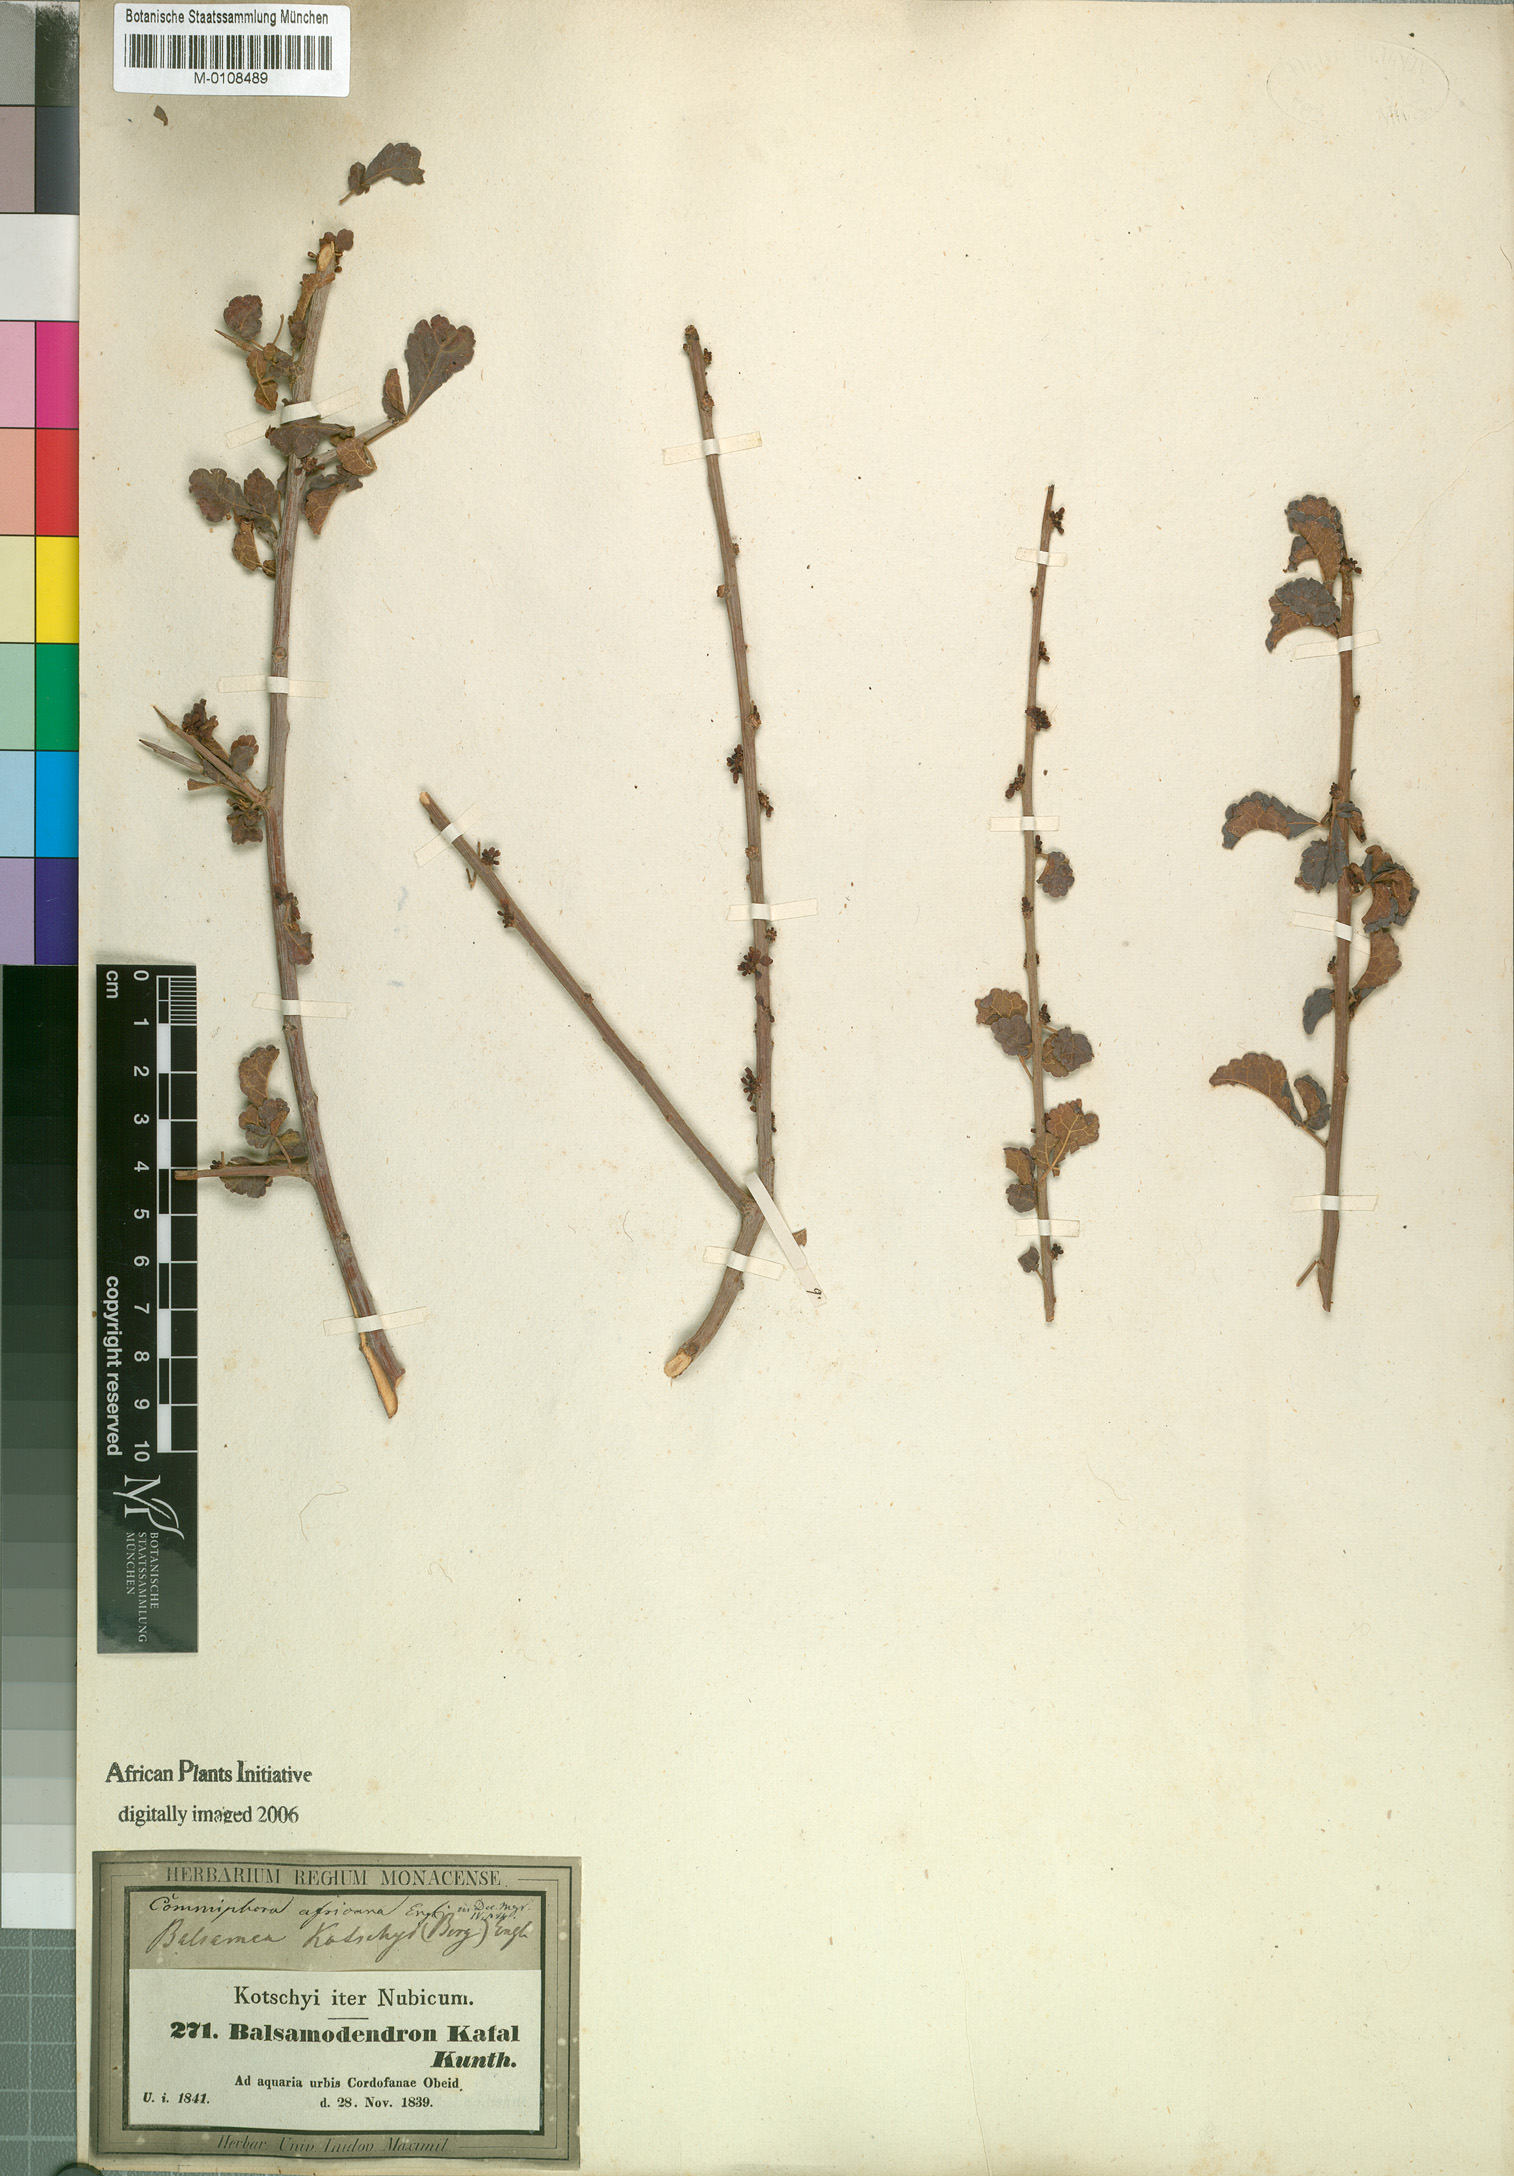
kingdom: Plantae
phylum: Tracheophyta
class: Magnoliopsida
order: Sapindales
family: Burseraceae
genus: Commiphora
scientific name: Commiphora africana
